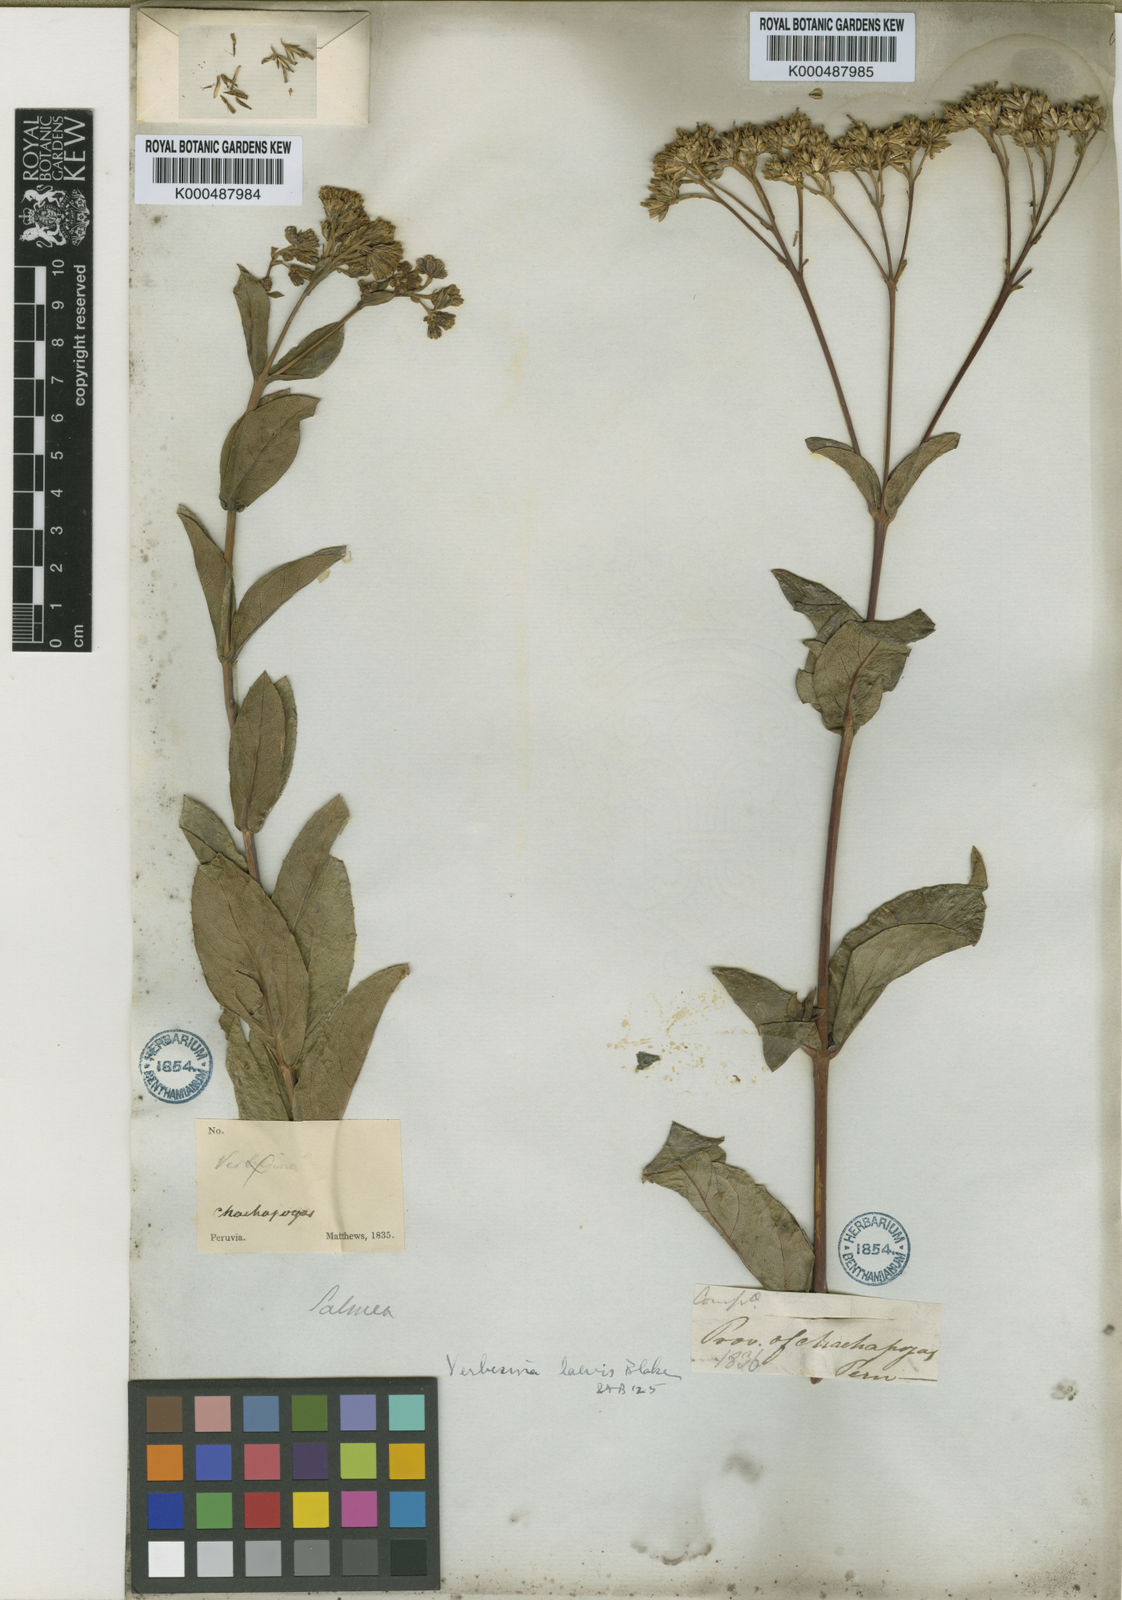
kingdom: Plantae
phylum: Tracheophyta
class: Magnoliopsida
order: Asterales
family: Asteraceae
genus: Verbesina
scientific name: Verbesina laevis
